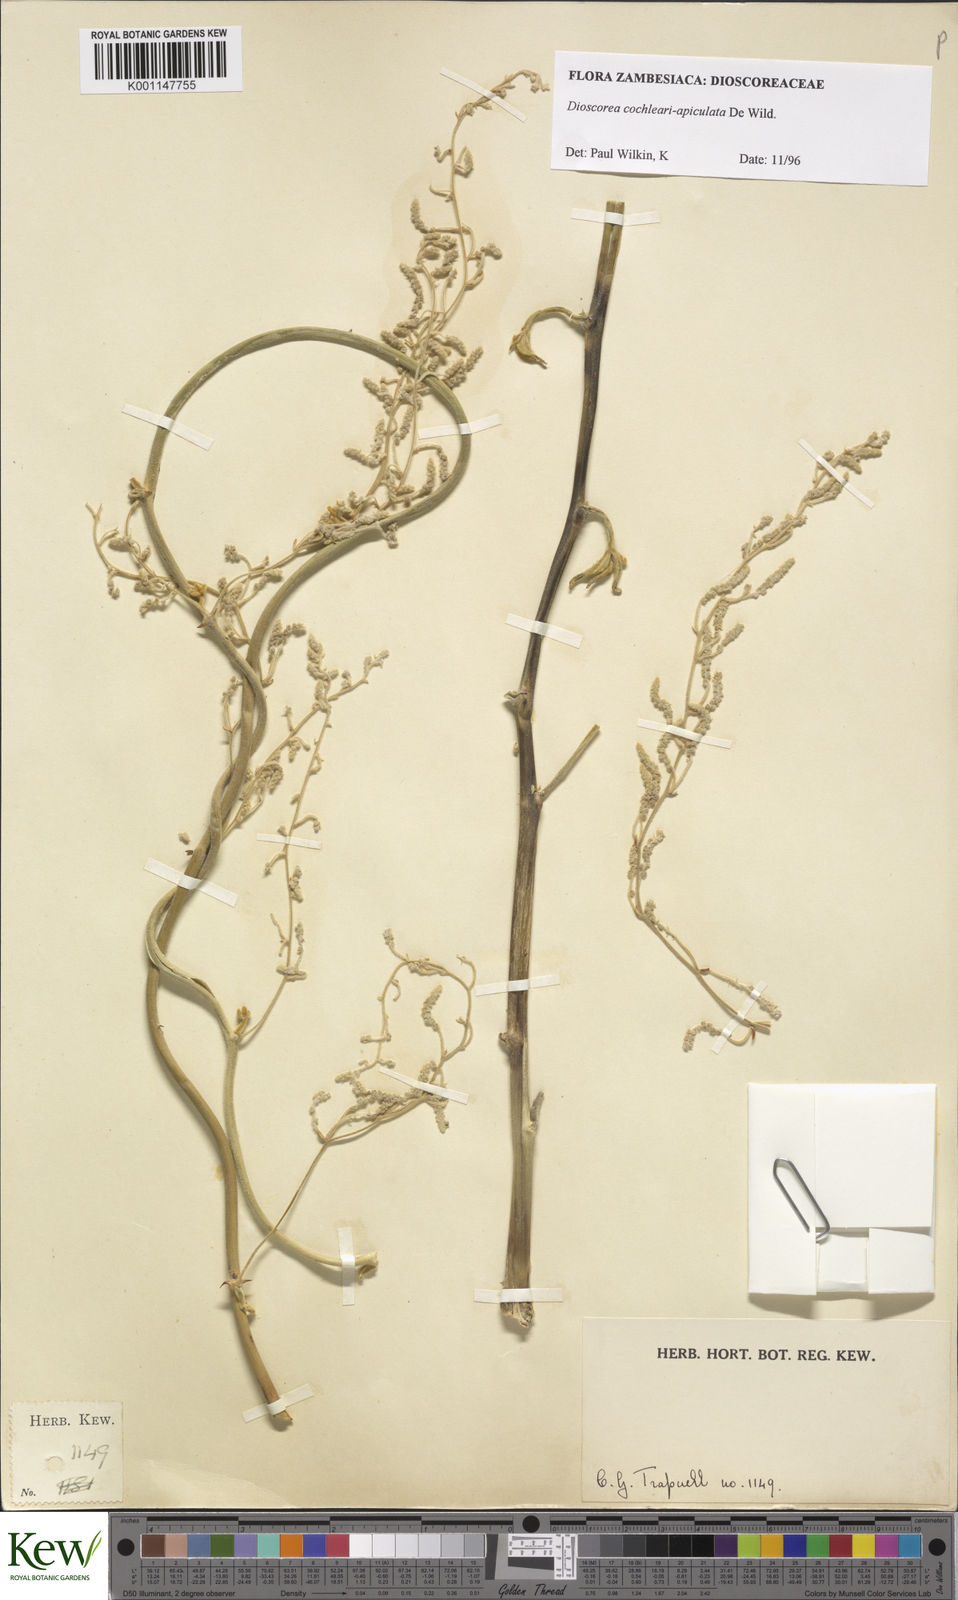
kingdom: Plantae
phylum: Tracheophyta
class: Liliopsida
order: Dioscoreales
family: Dioscoreaceae
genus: Dioscorea
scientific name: Dioscorea cochleariapiculata
